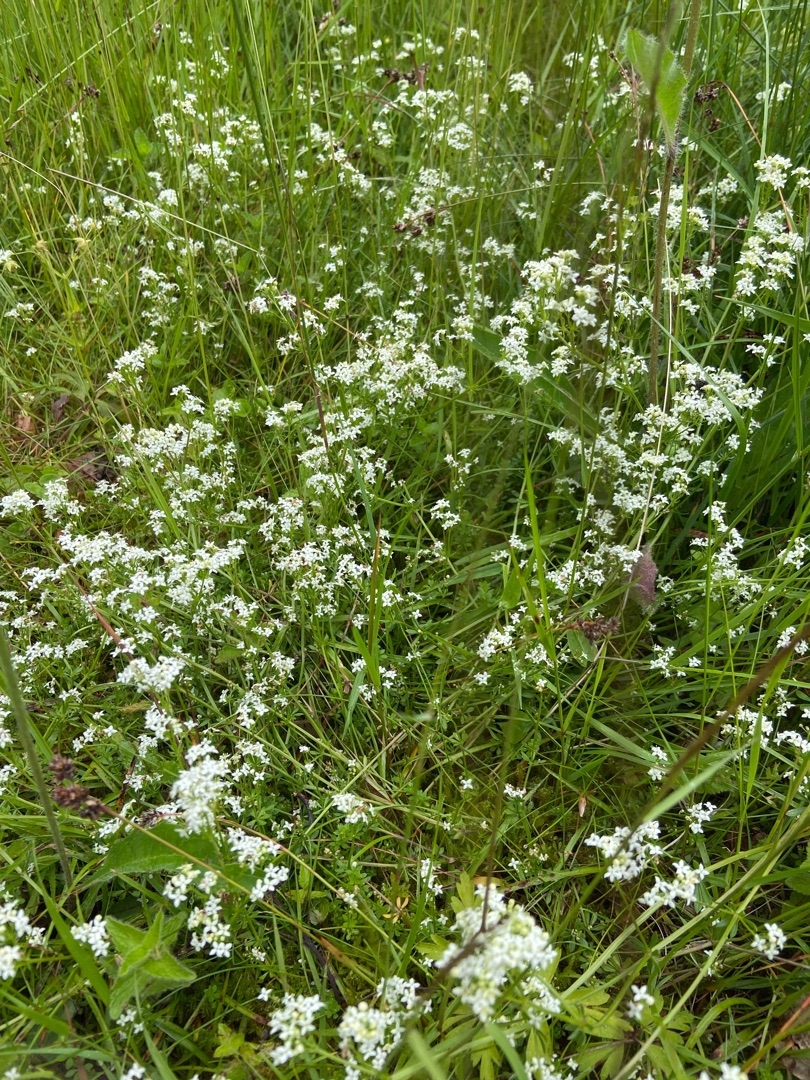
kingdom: Plantae
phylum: Tracheophyta
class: Magnoliopsida
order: Gentianales
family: Rubiaceae
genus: Galium
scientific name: Galium saxatile
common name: Lyng-snerre
